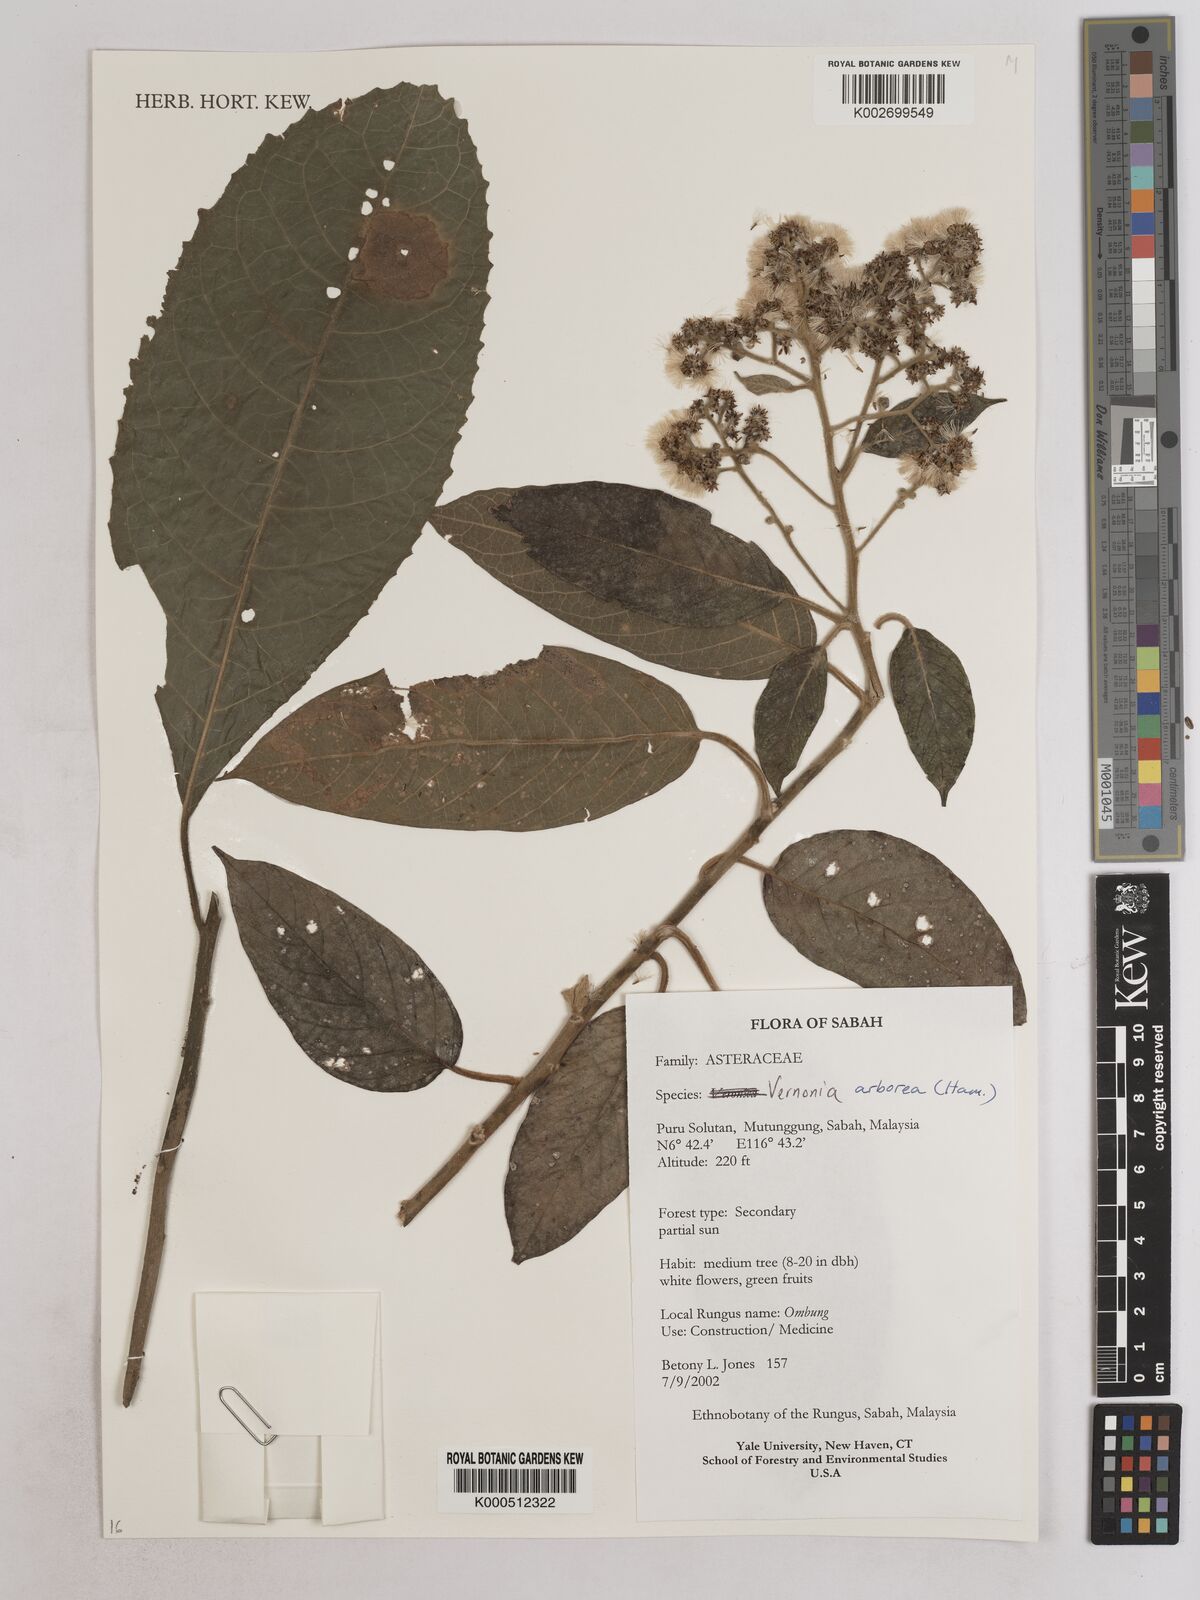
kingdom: Plantae
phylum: Tracheophyta
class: Magnoliopsida
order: Asterales
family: Asteraceae
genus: Strobocalyx
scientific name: Strobocalyx arborea
